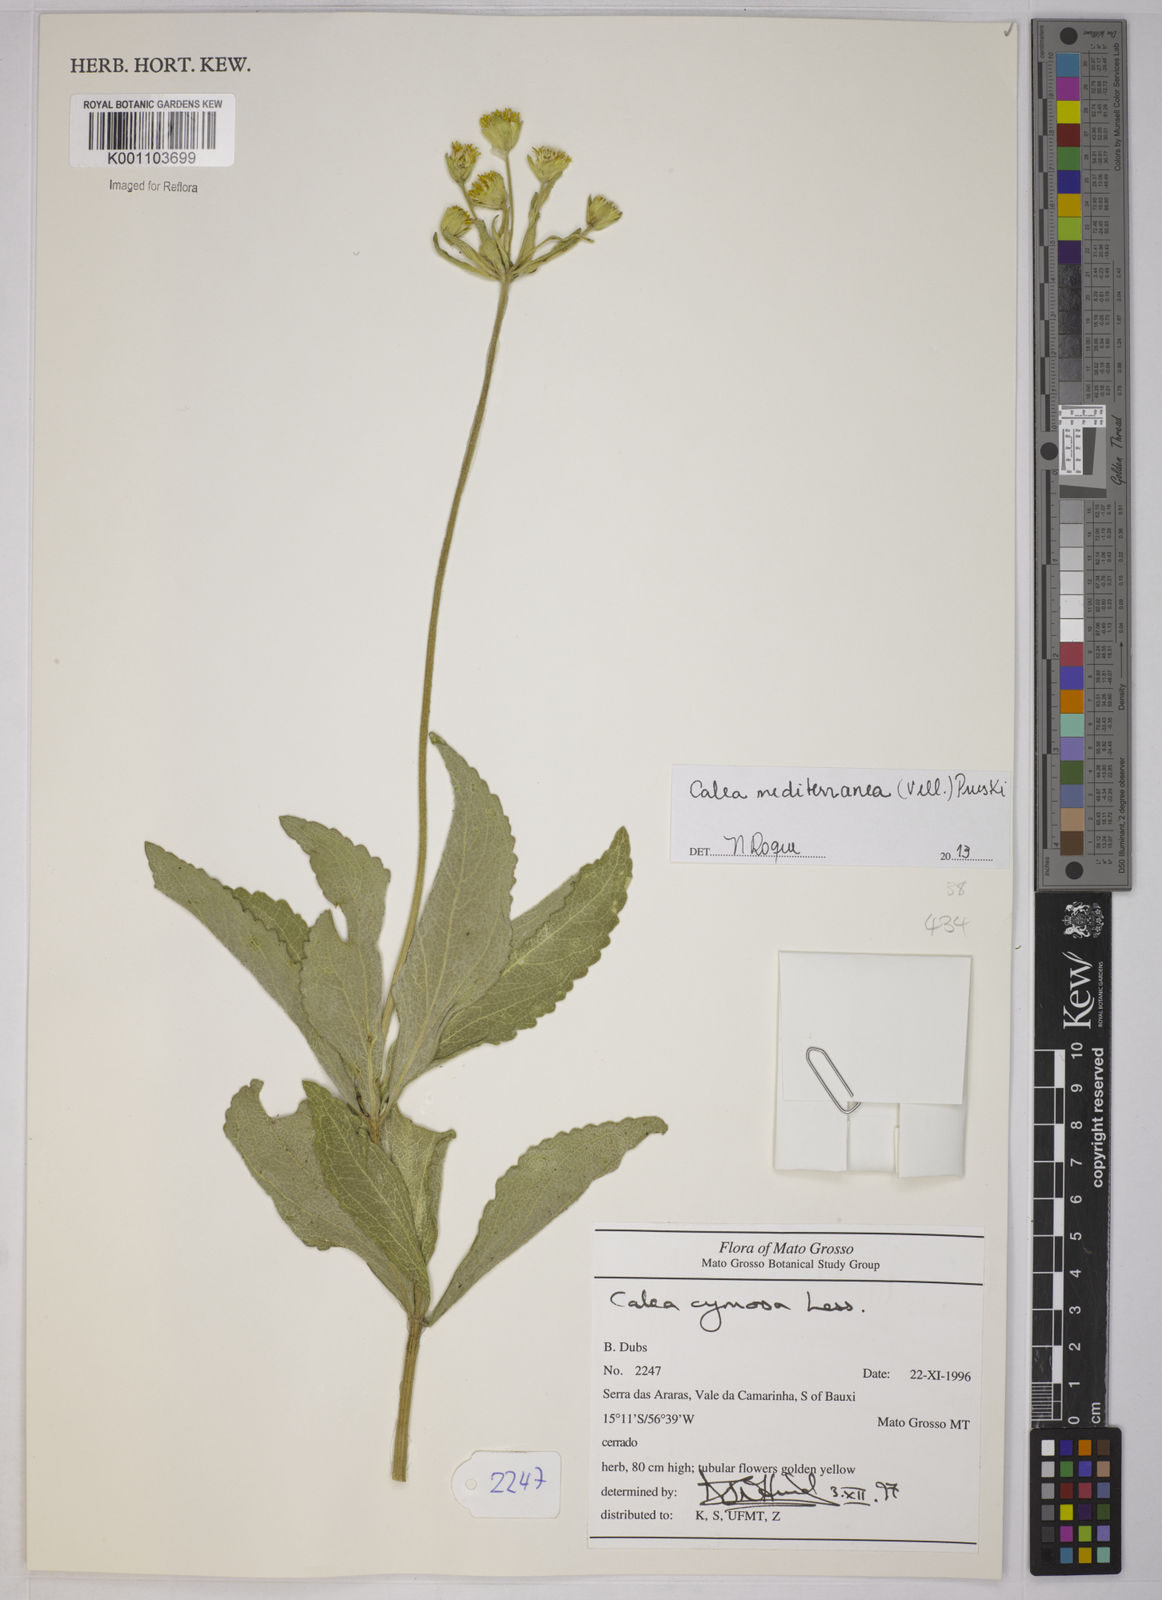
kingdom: Plantae
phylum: Tracheophyta
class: Magnoliopsida
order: Asterales
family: Asteraceae
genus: Calea
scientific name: Calea mediterranea
